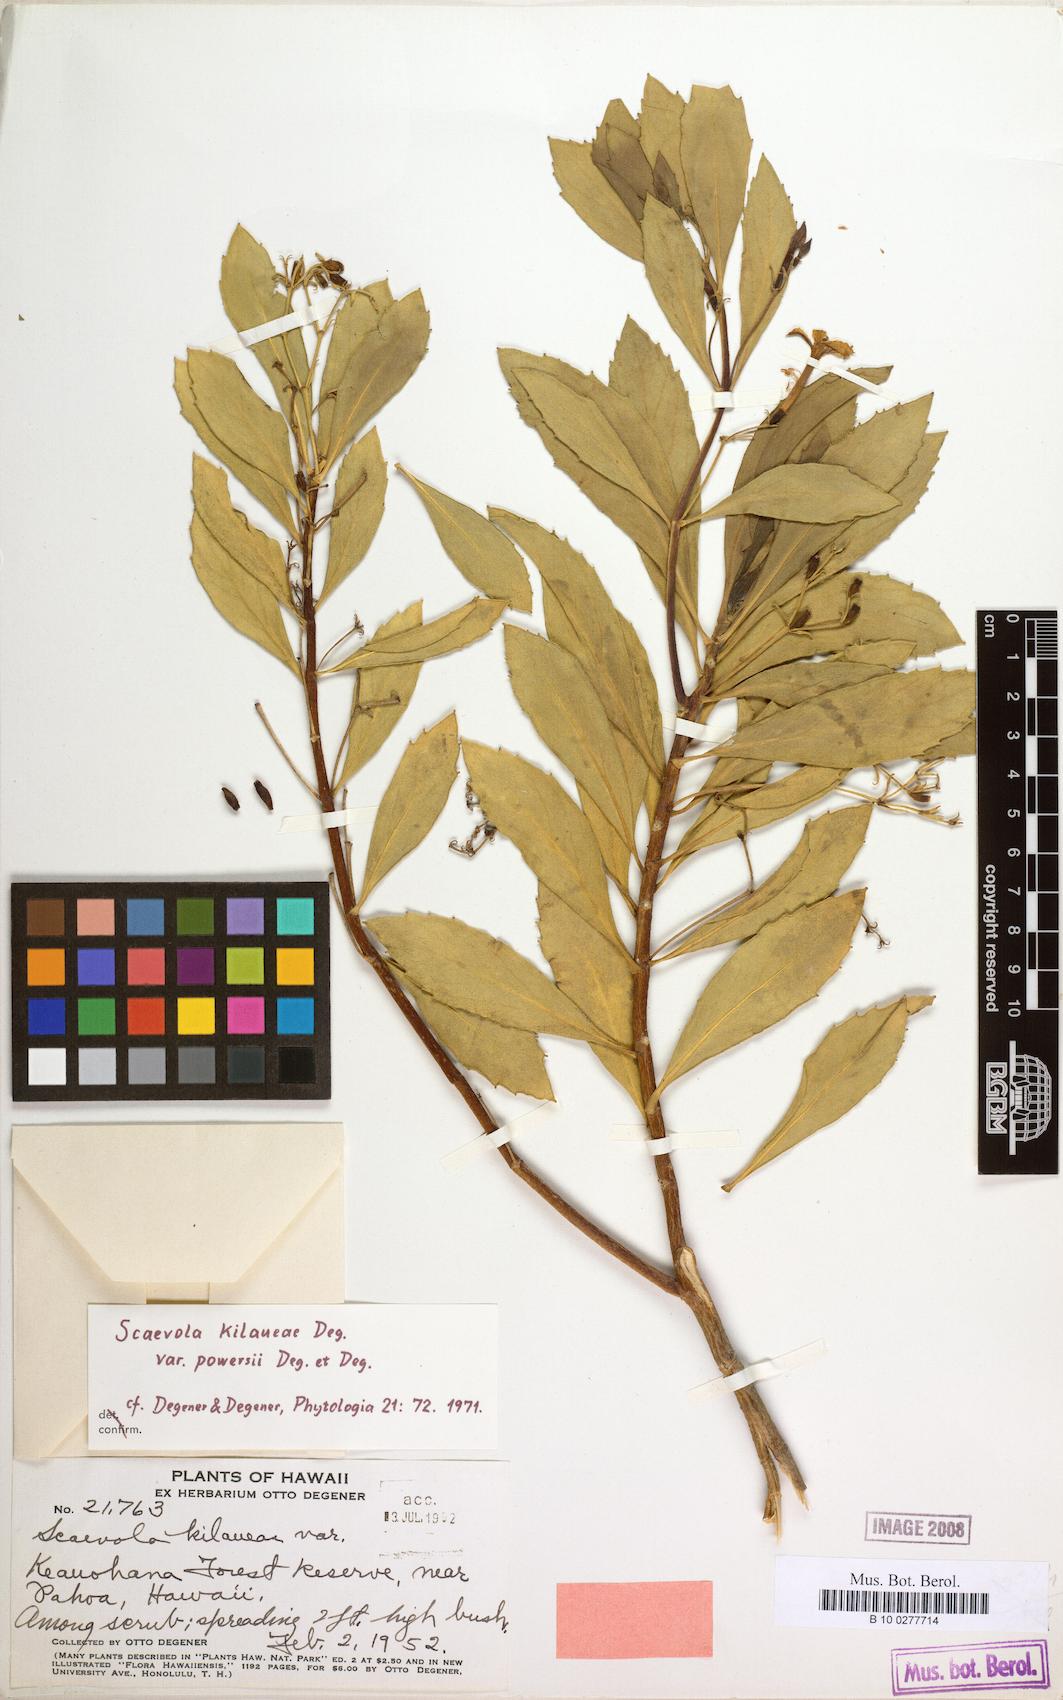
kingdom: Plantae
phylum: Tracheophyta
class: Magnoliopsida
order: Asterales
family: Goodeniaceae
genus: Scaevola
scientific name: Scaevola kilaueae
